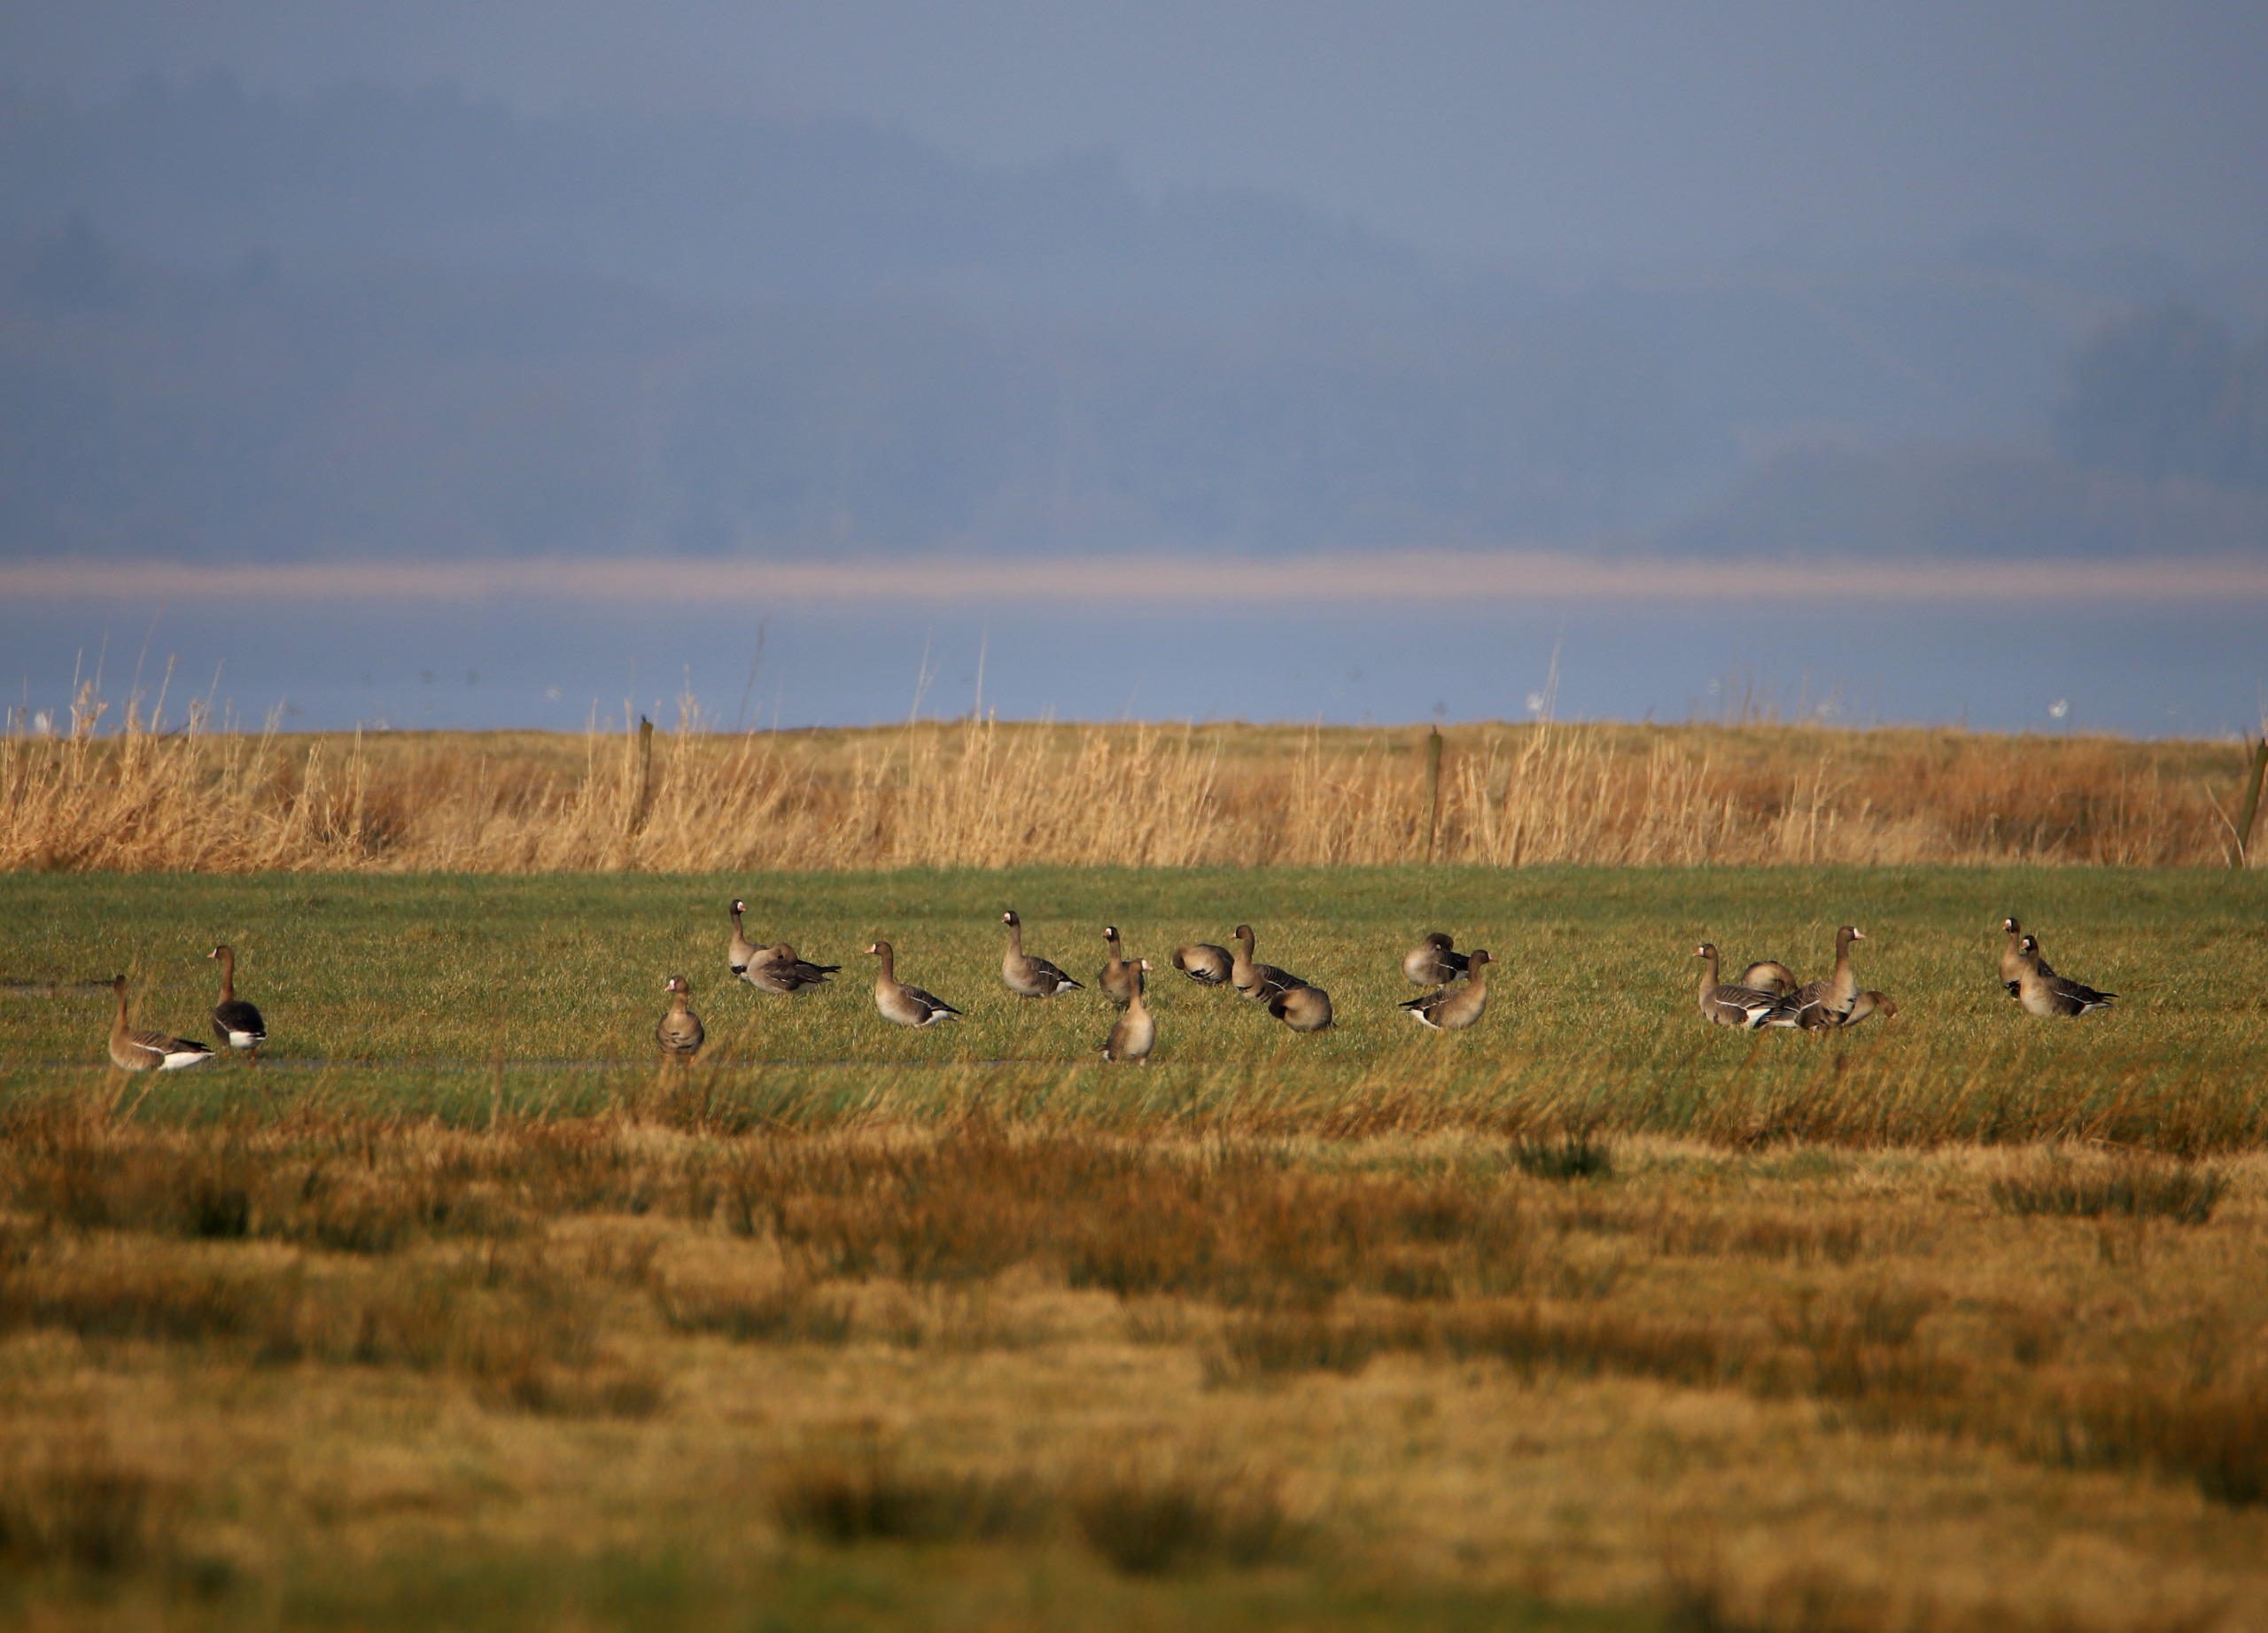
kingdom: Animalia
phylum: Chordata
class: Aves
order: Anseriformes
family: Anatidae
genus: Anser
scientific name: Anser albifrons
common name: Blisgås
